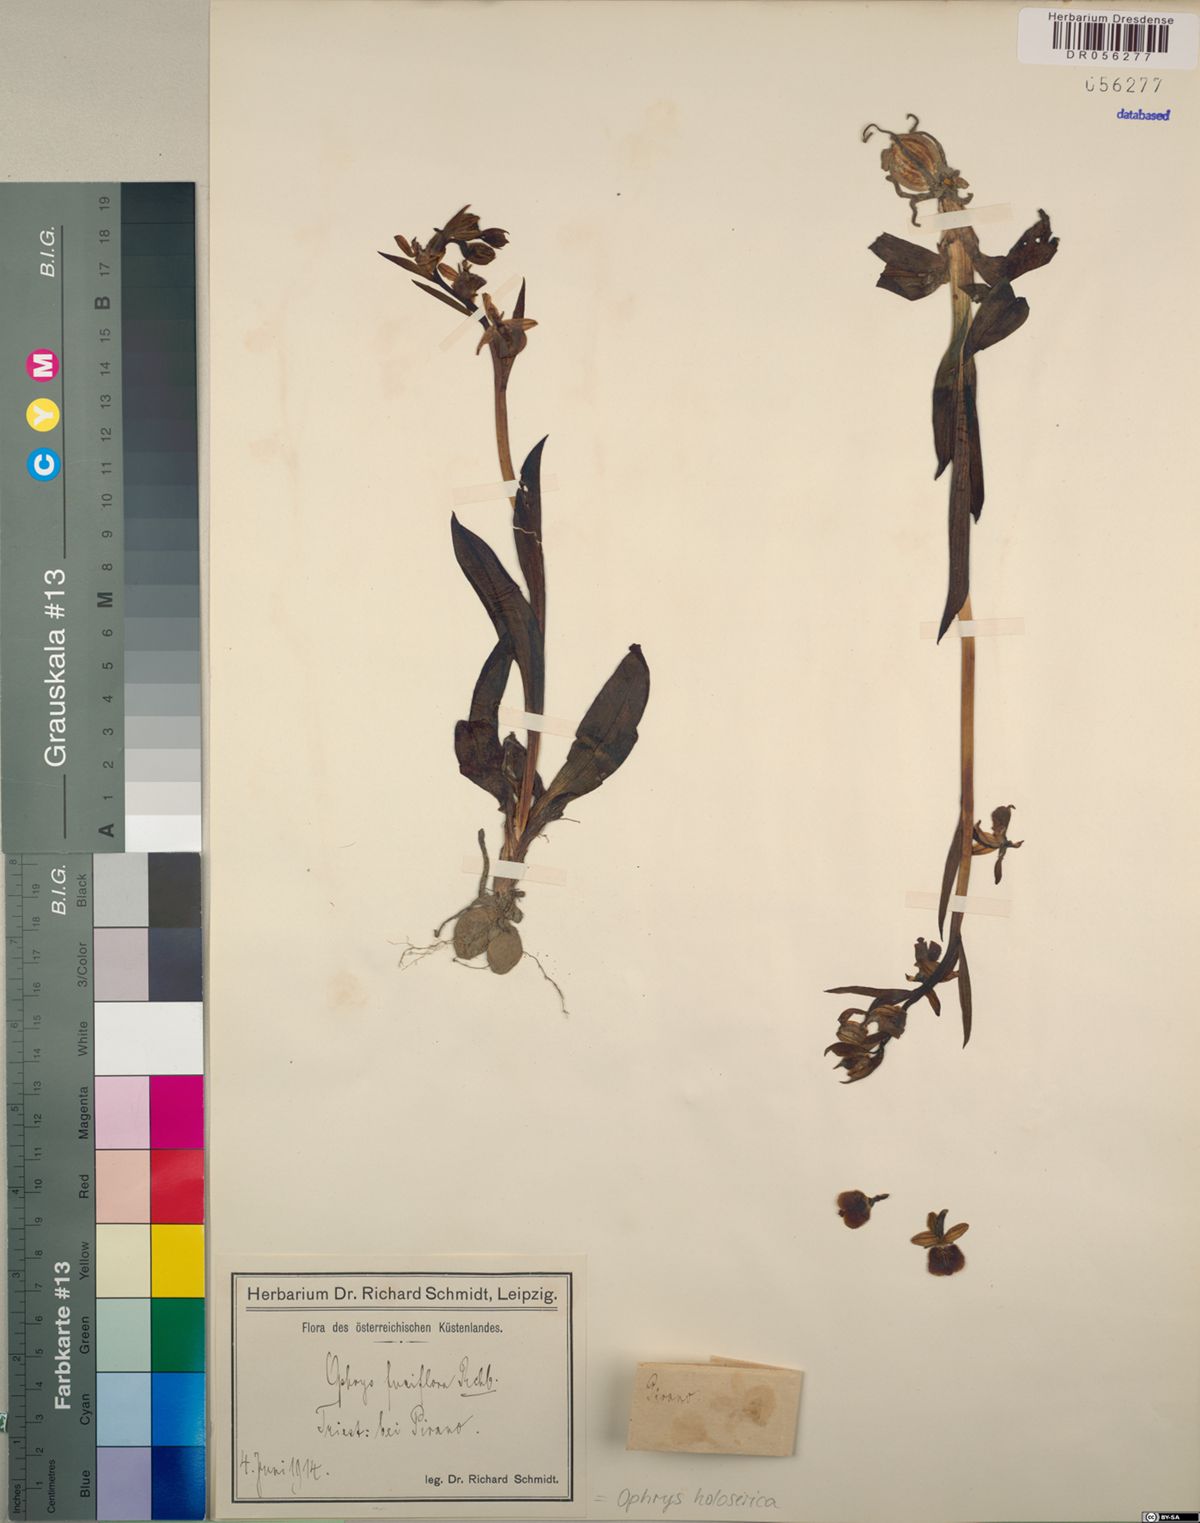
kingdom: Plantae
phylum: Tracheophyta
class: Liliopsida
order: Asparagales
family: Orchidaceae
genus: Ophrys
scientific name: Ophrys holosericea
